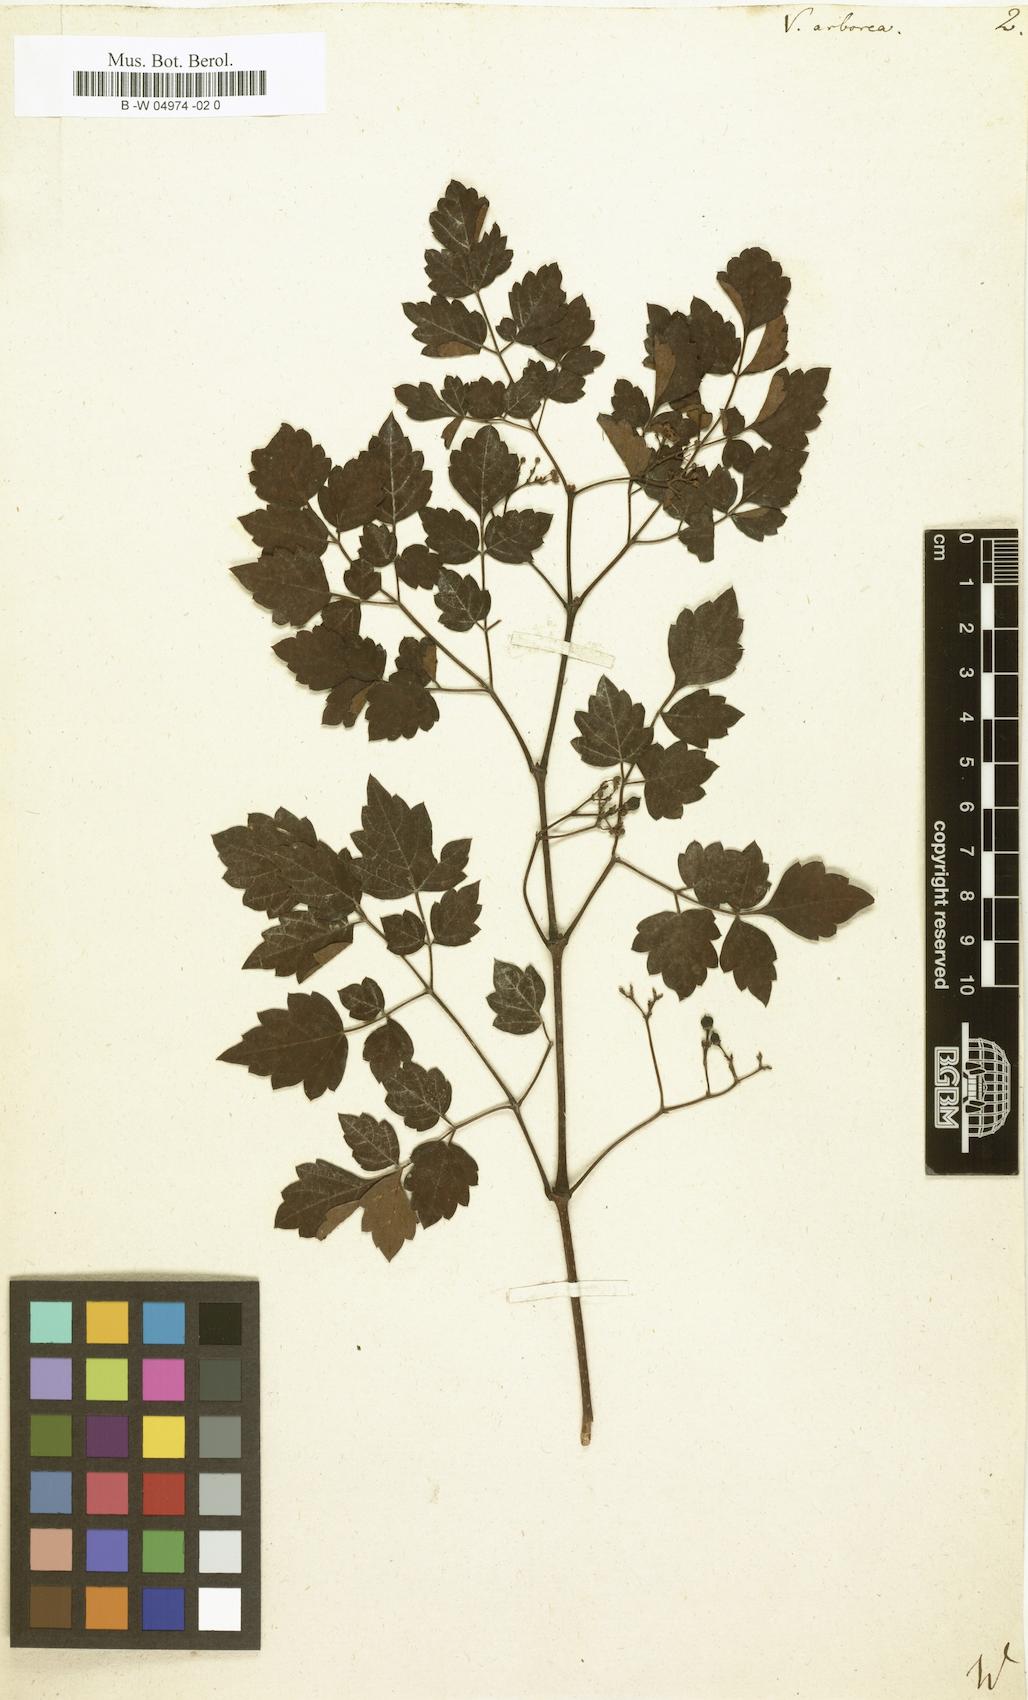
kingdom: Plantae
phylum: Tracheophyta
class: Magnoliopsida
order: Vitales
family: Vitaceae
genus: Nekemias
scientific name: Nekemias arborea
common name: Peppervine
